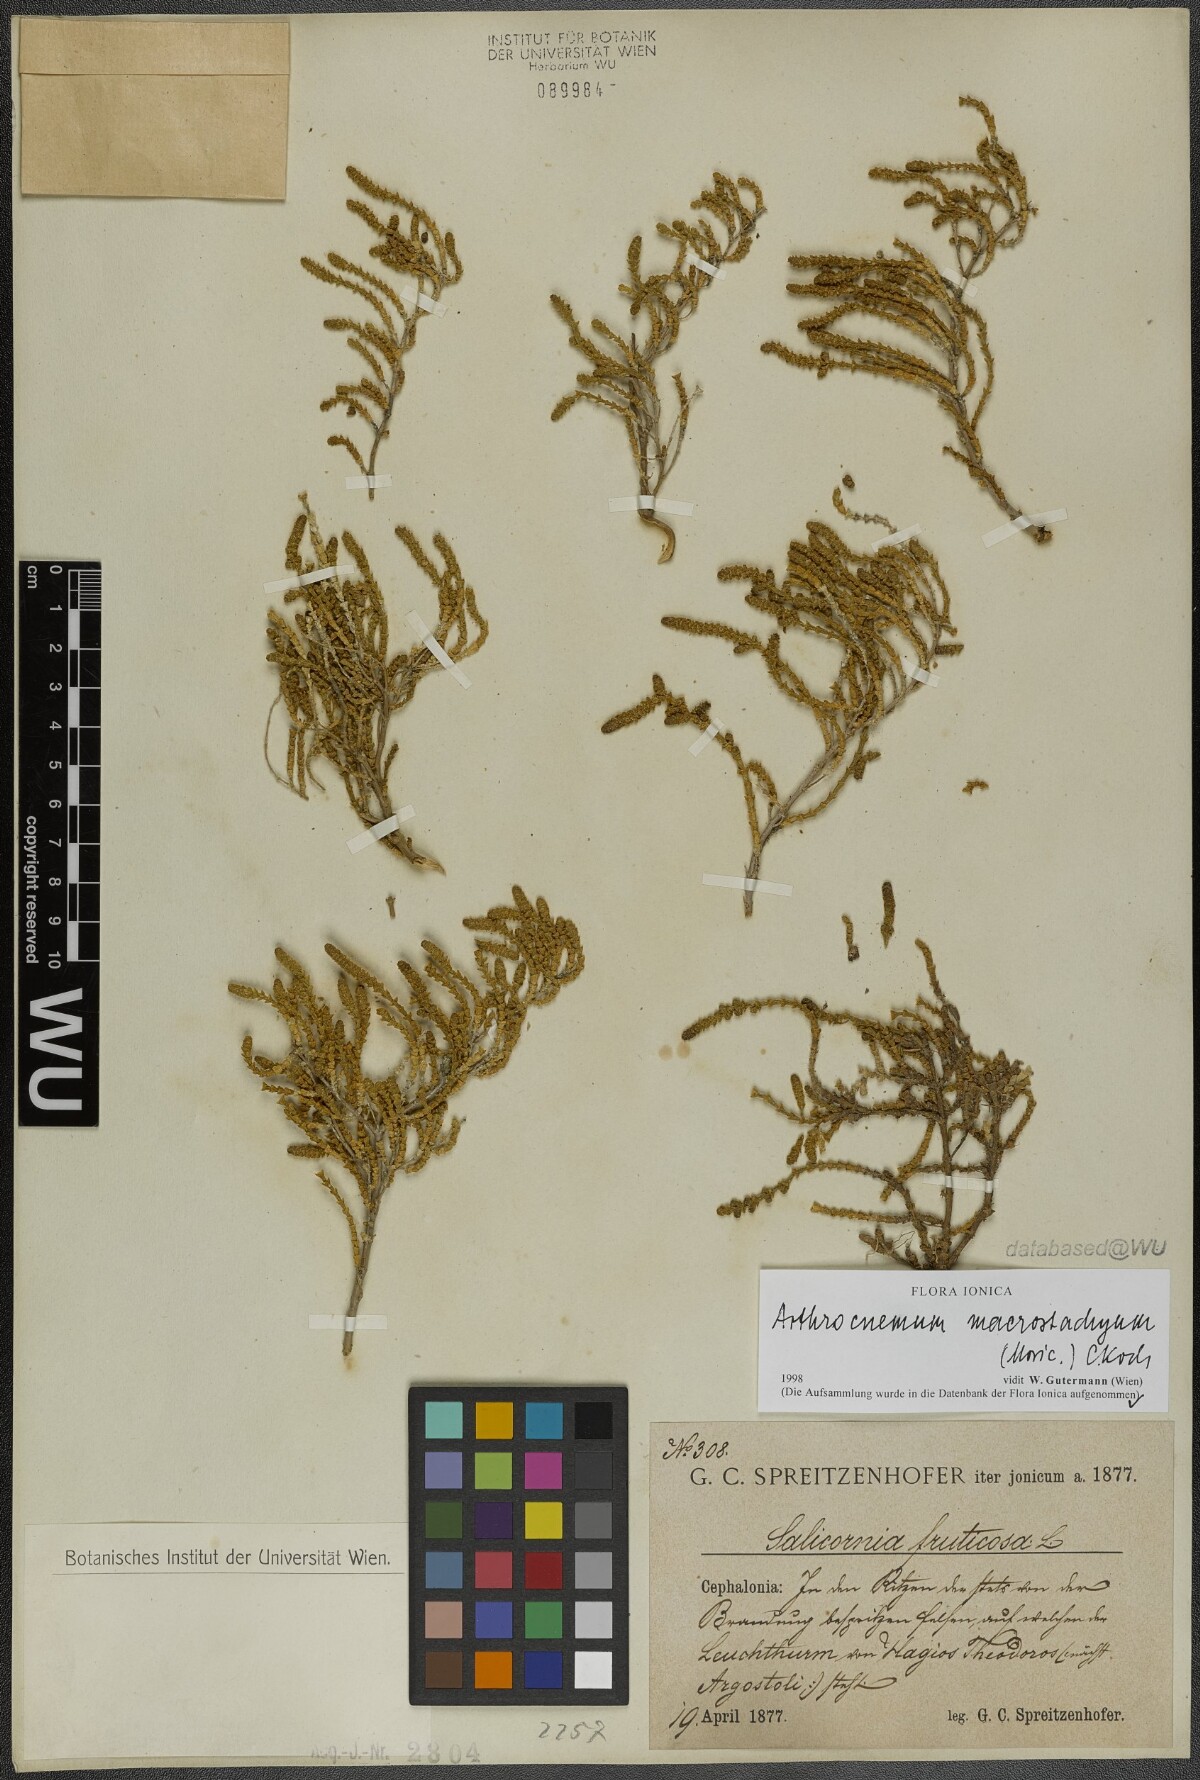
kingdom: Plantae
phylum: Tracheophyta
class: Magnoliopsida
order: Caryophyllales
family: Amaranthaceae
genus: Arthrocaulon
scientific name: Arthrocaulon macrostachyum
